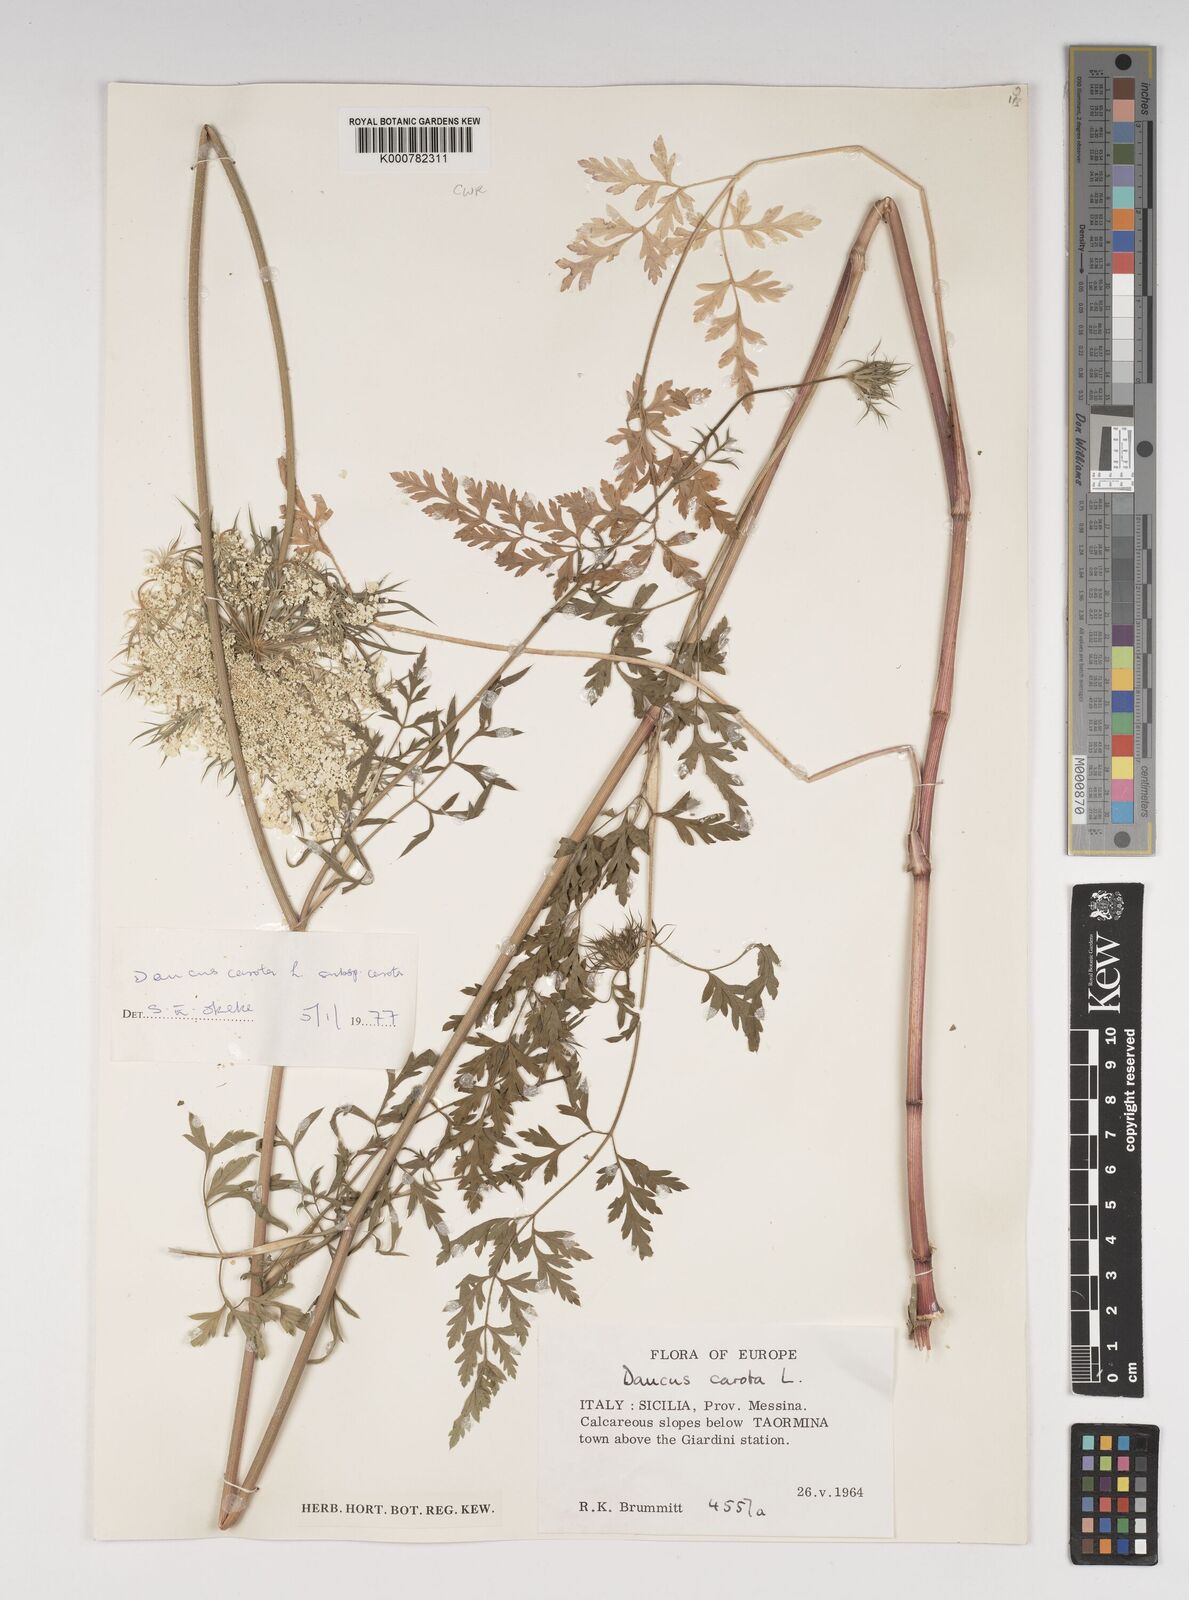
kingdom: Plantae
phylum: Tracheophyta
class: Magnoliopsida
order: Apiales
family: Apiaceae
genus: Daucus
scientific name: Daucus carota
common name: Wild carrot
